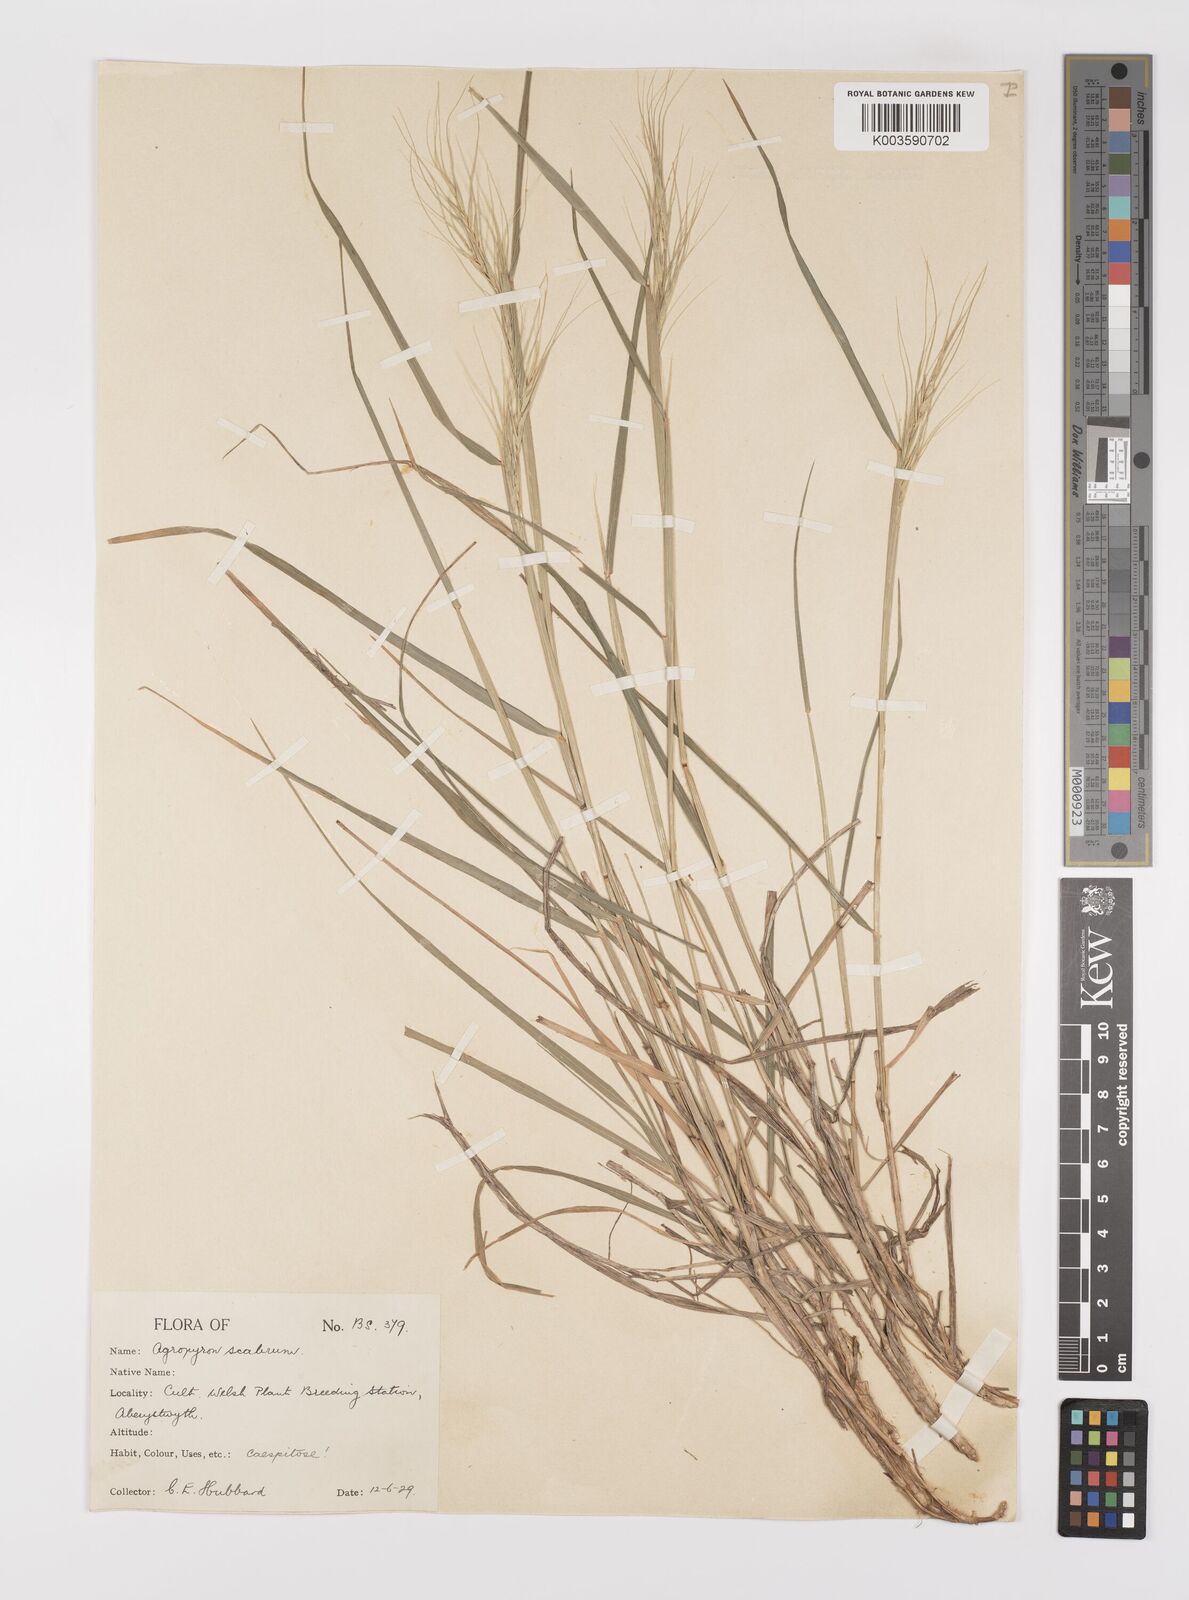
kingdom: Plantae
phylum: Tracheophyta
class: Liliopsida
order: Poales
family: Poaceae
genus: Elymus
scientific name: Elymus
